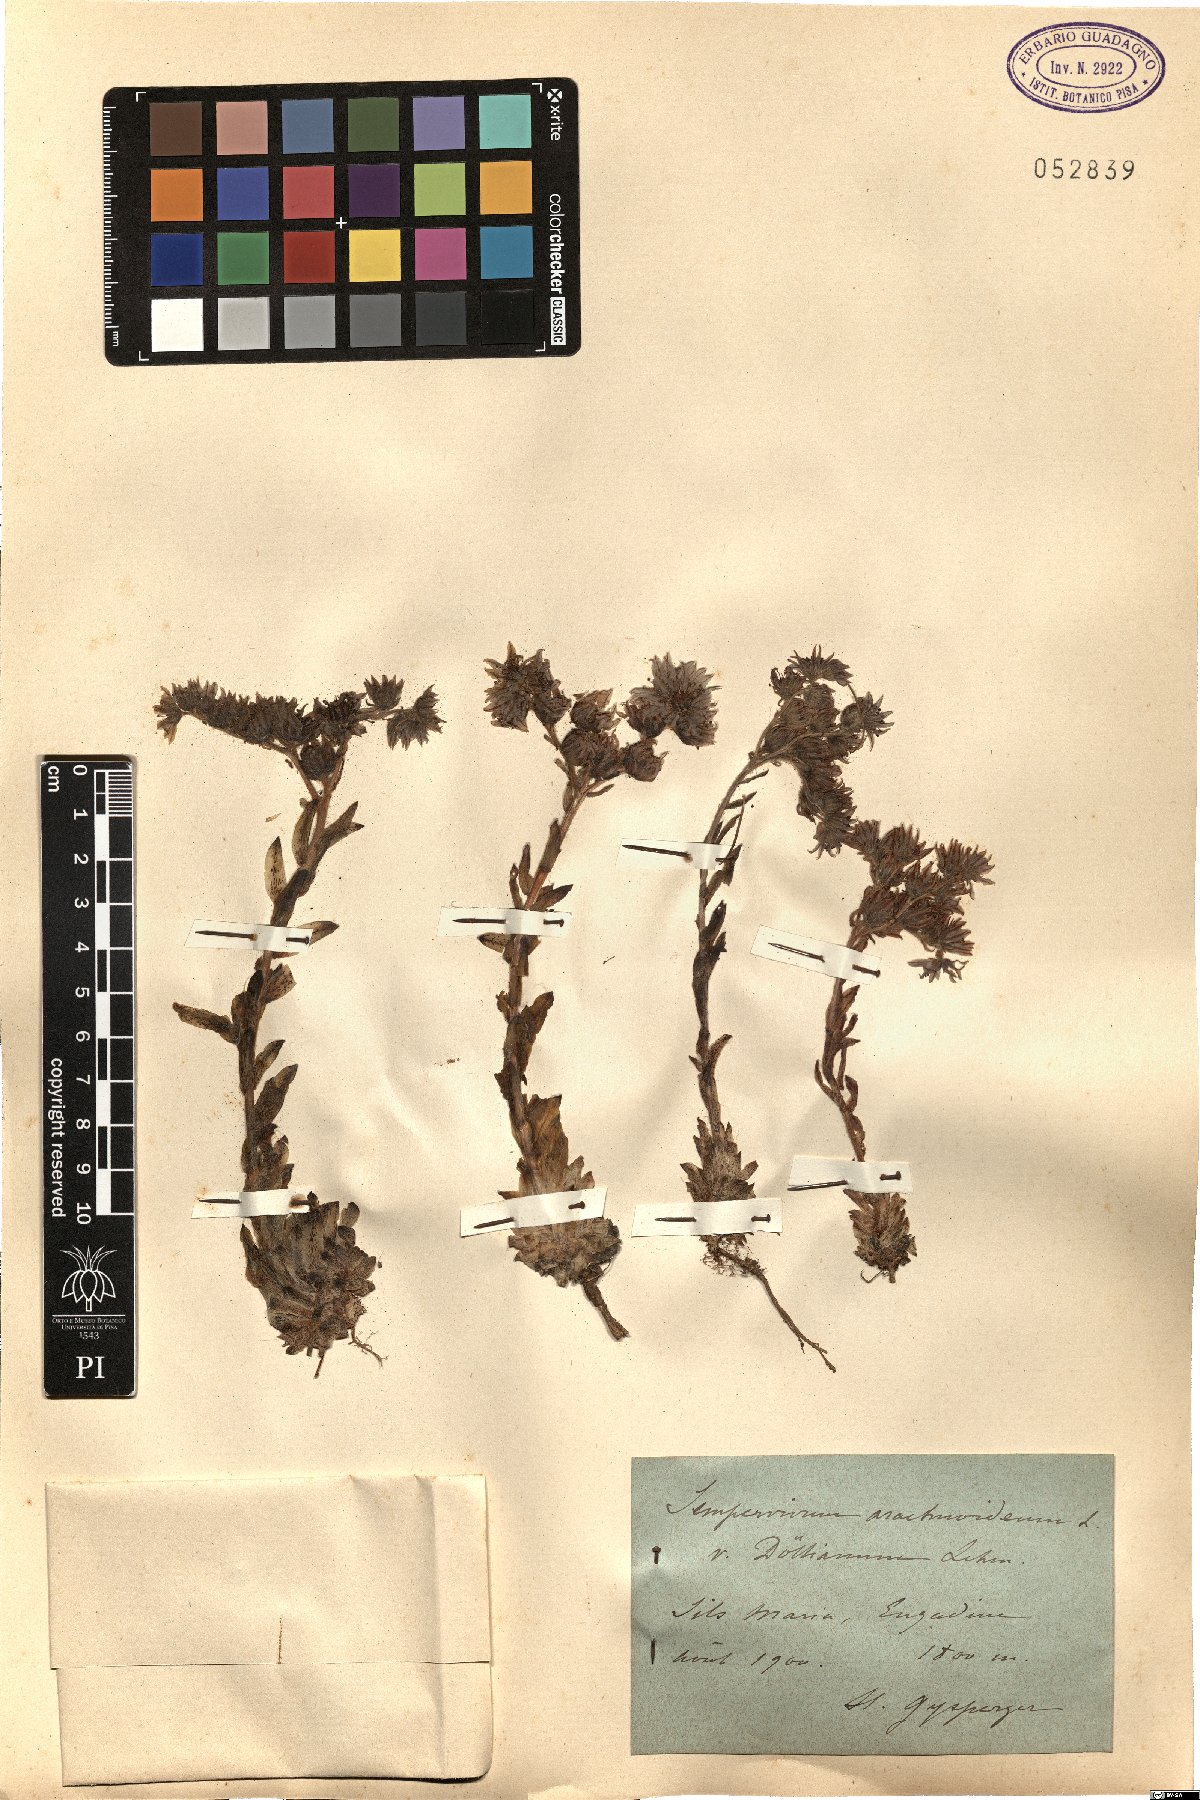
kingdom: Plantae
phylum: Tracheophyta
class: Magnoliopsida
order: Saxifragales
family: Crassulaceae
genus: Sempervivum
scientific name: Sempervivum arachnoideum
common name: Cobweb house-leek
